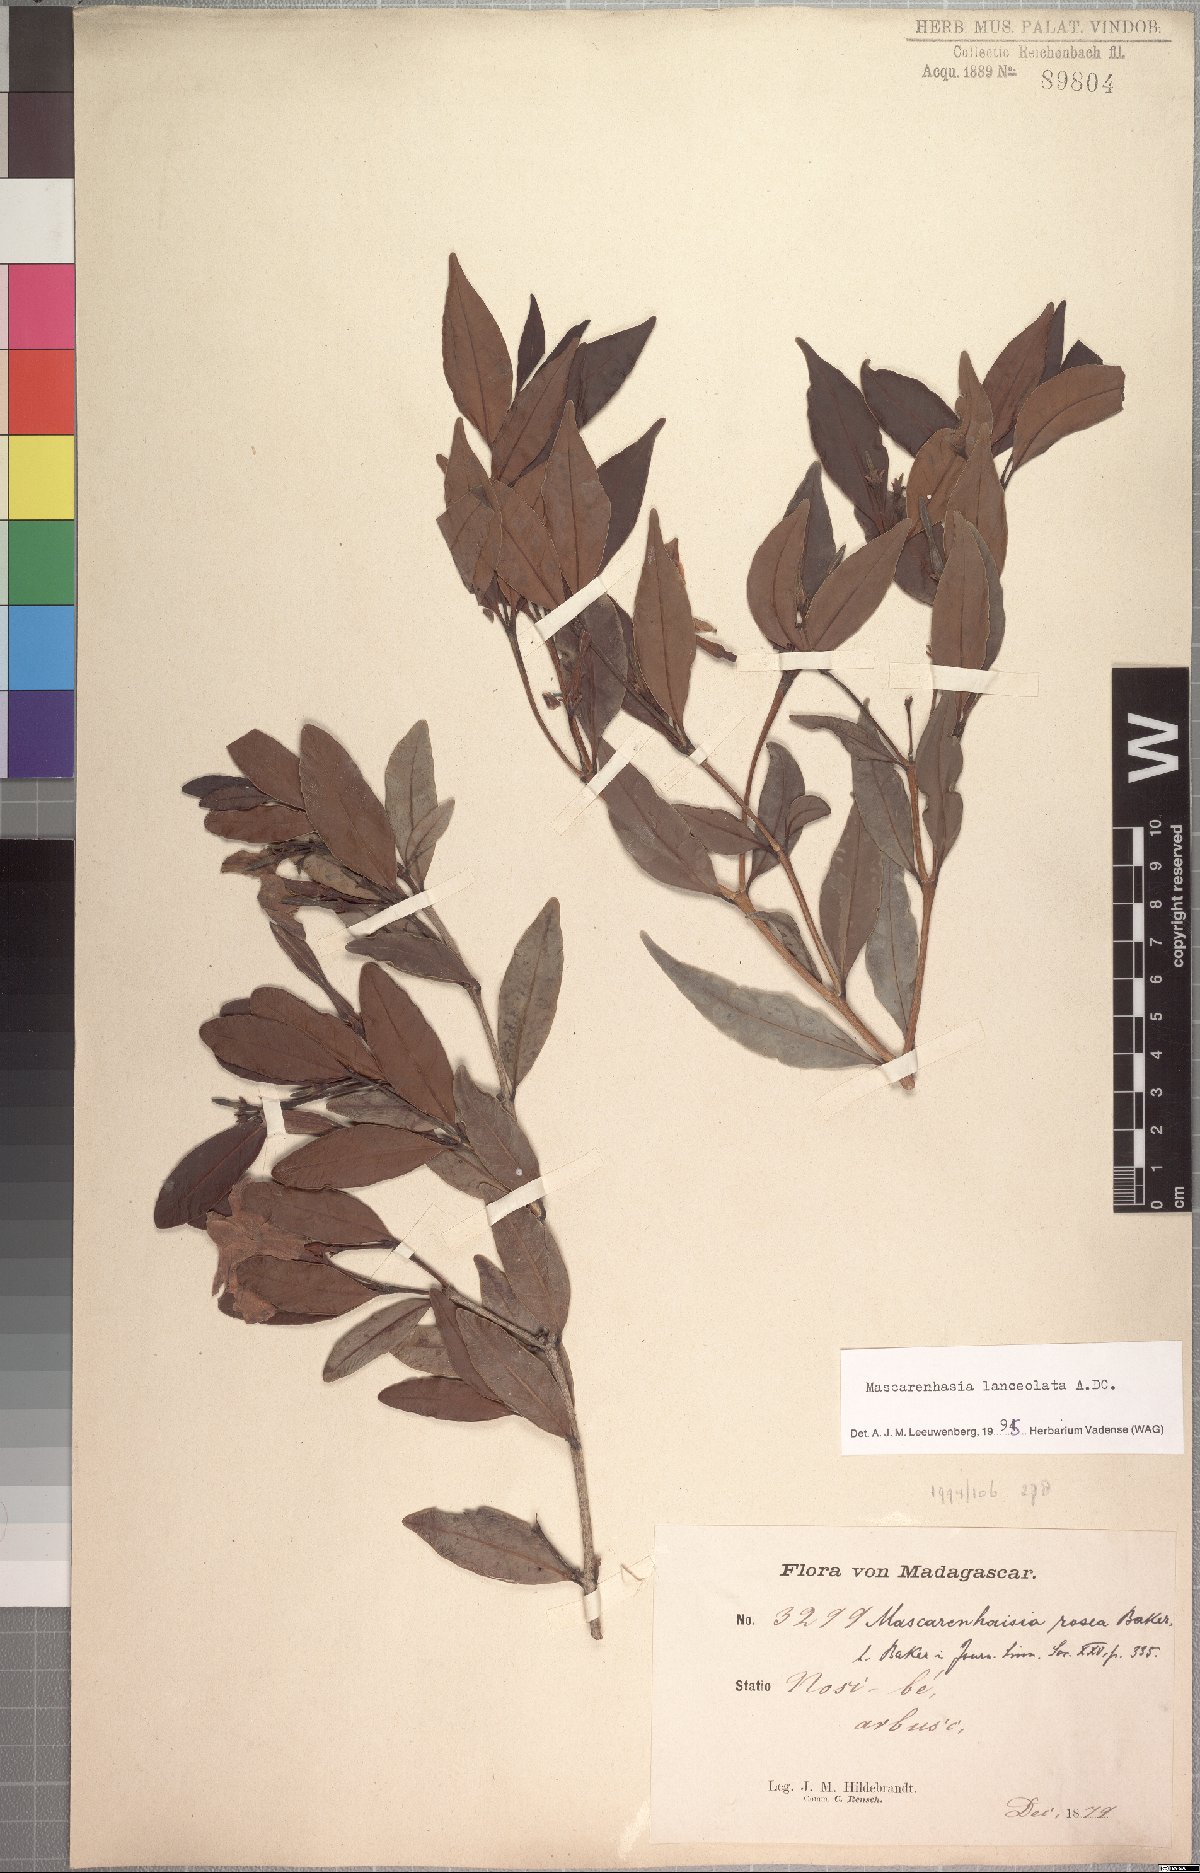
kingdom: Plantae
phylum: Tracheophyta
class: Magnoliopsida
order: Gentianales
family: Apocynaceae
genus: Mascarenhasia
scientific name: Mascarenhasia lanceolata
